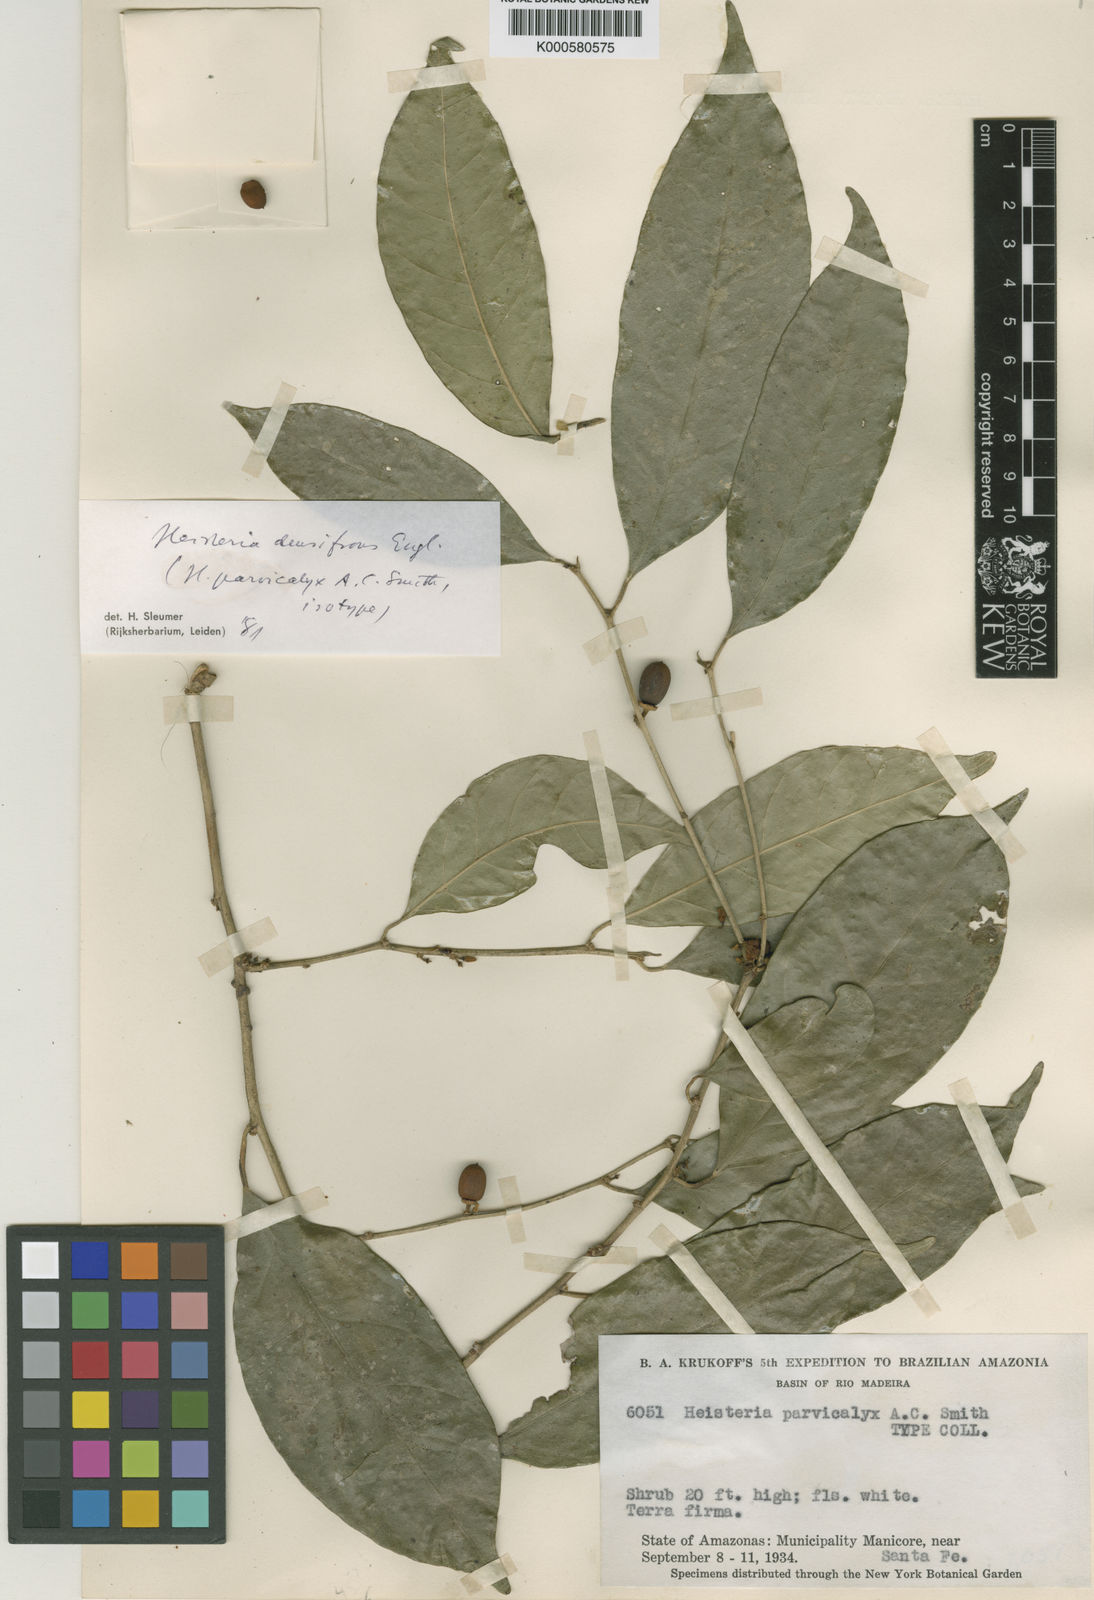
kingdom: Plantae
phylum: Tracheophyta
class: Magnoliopsida
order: Santalales
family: Erythropalaceae
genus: Heisteria
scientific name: Heisteria densifrons
